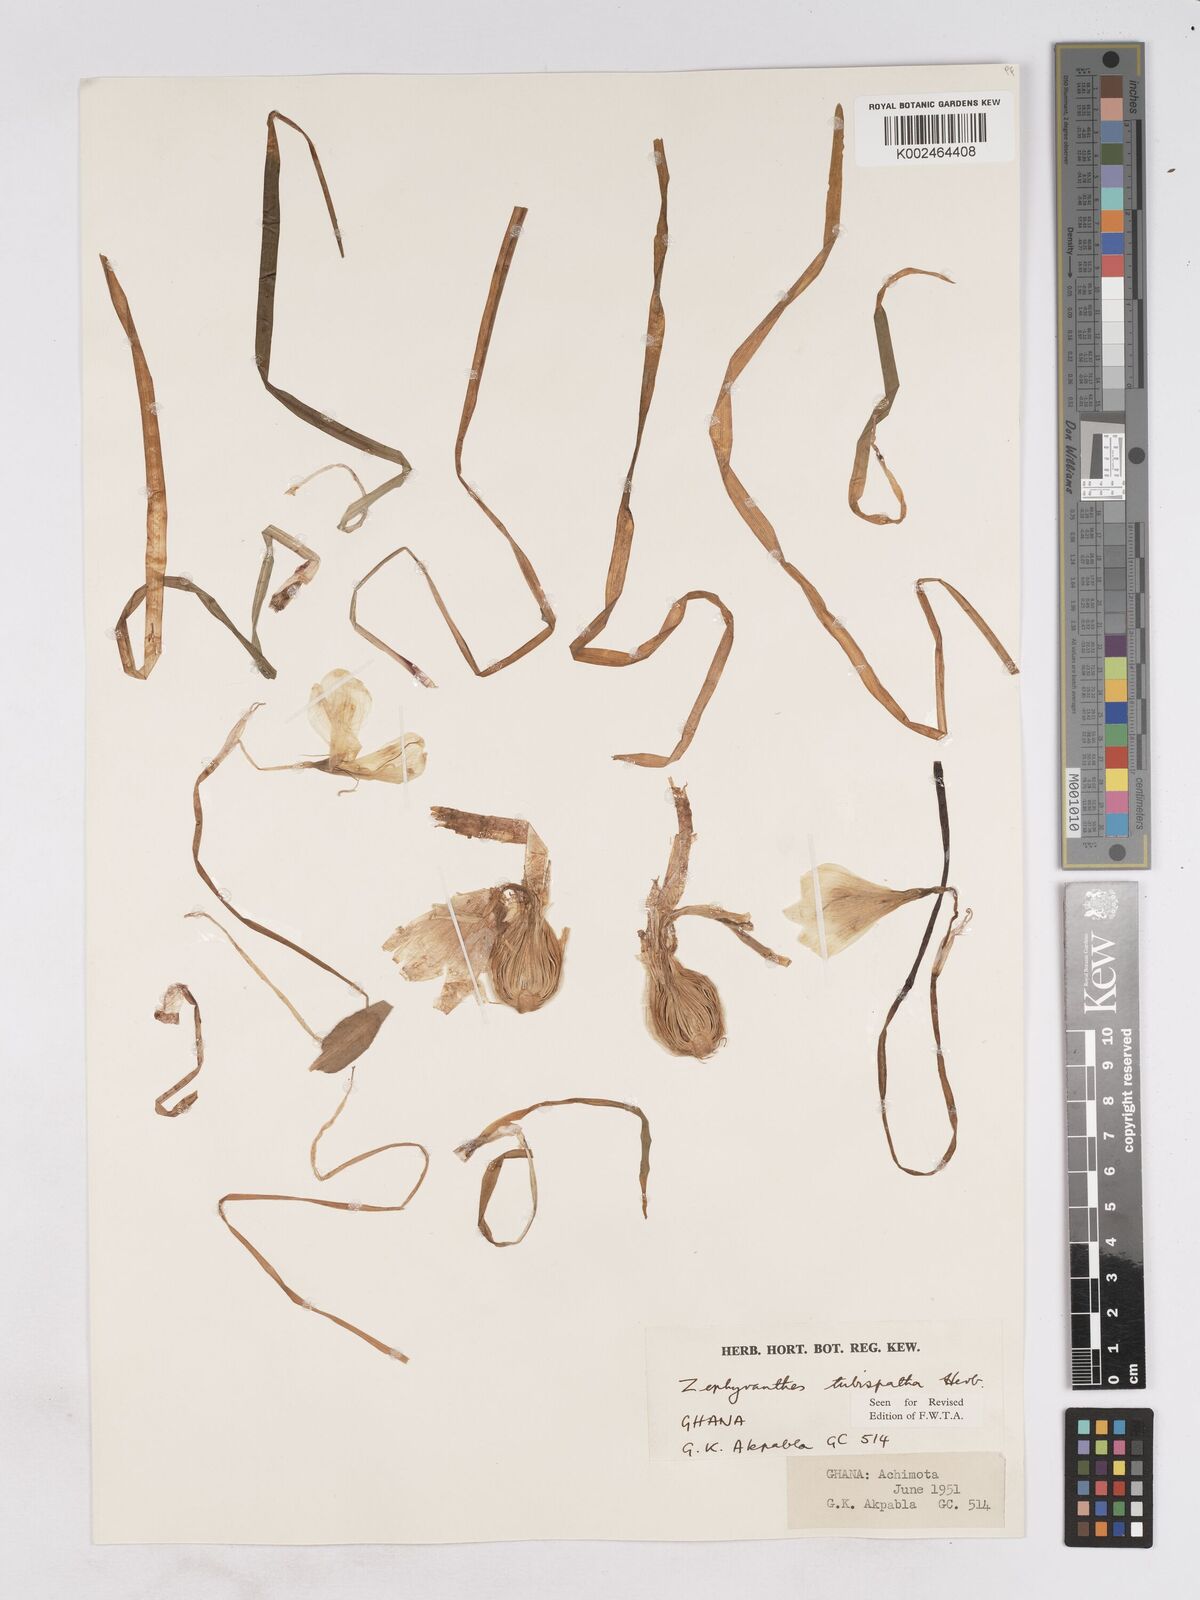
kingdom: Plantae
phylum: Tracheophyta
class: Liliopsida
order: Asparagales
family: Amaryllidaceae
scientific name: Amaryllidaceae
